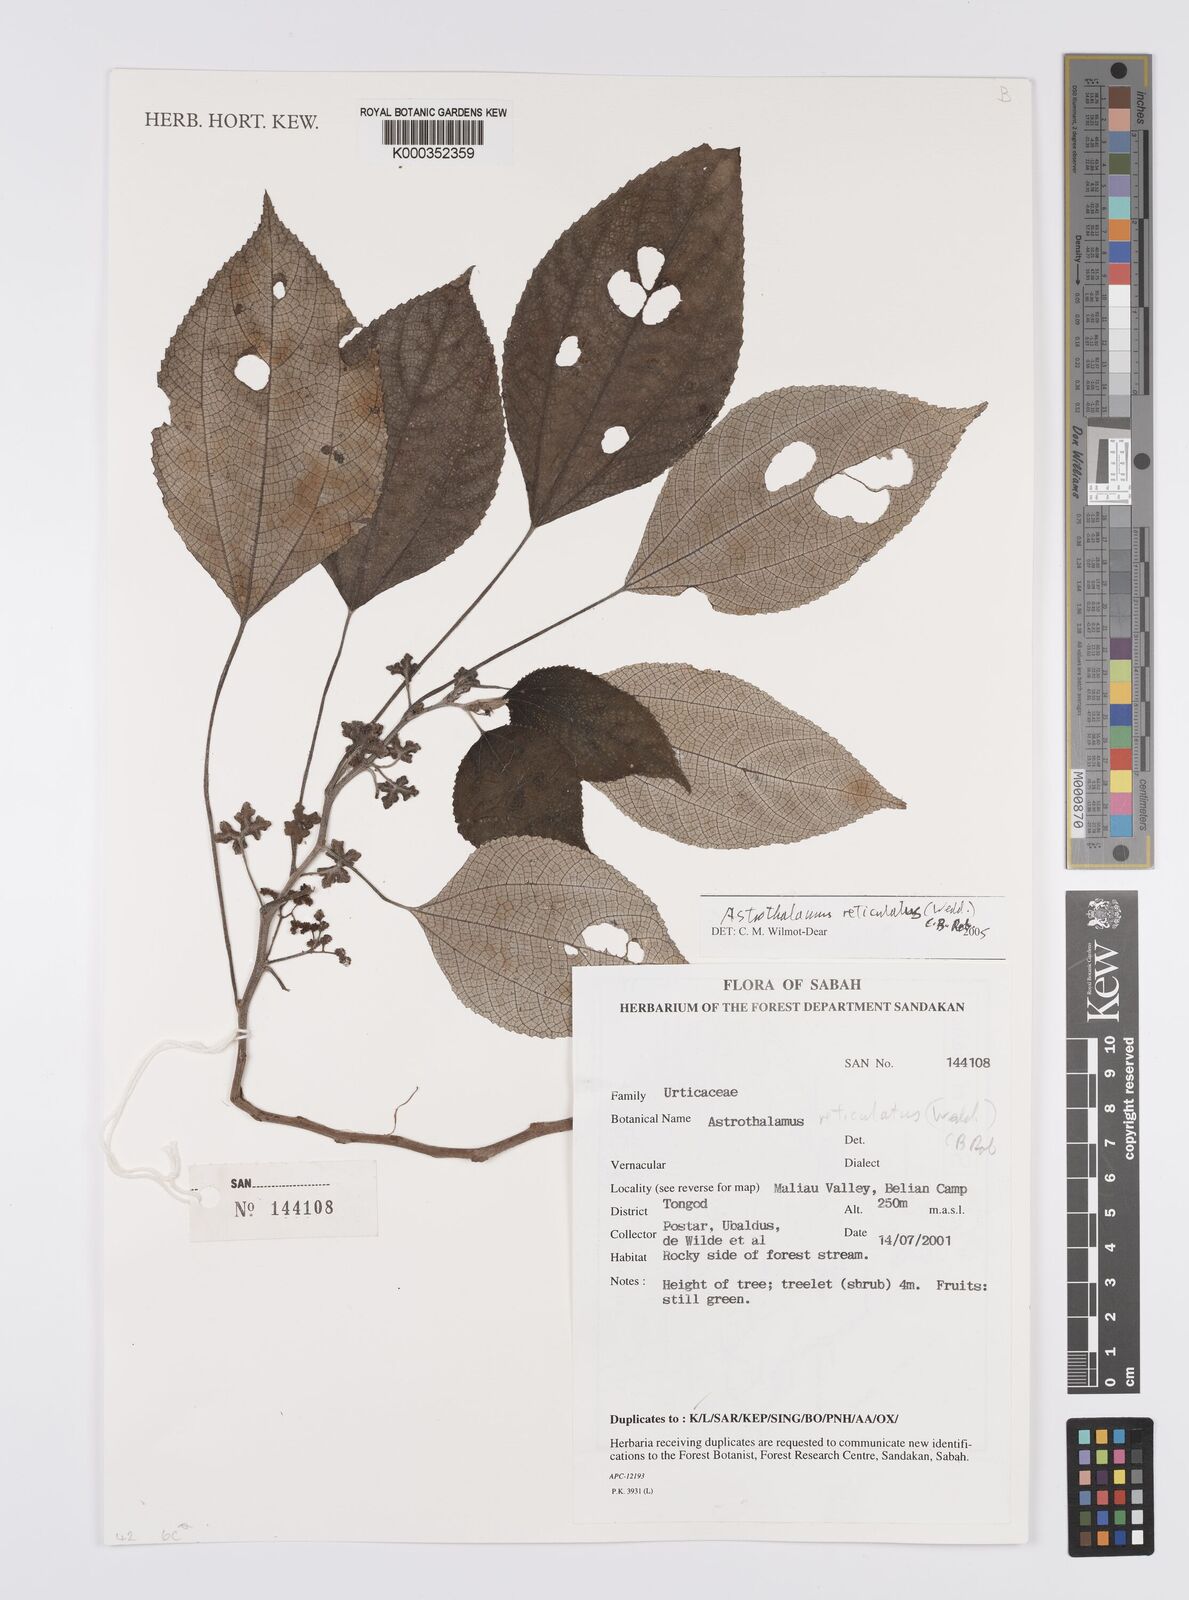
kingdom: Plantae
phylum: Tracheophyta
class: Magnoliopsida
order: Rosales
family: Urticaceae
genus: Astrothalamus
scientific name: Astrothalamus reticulatus
